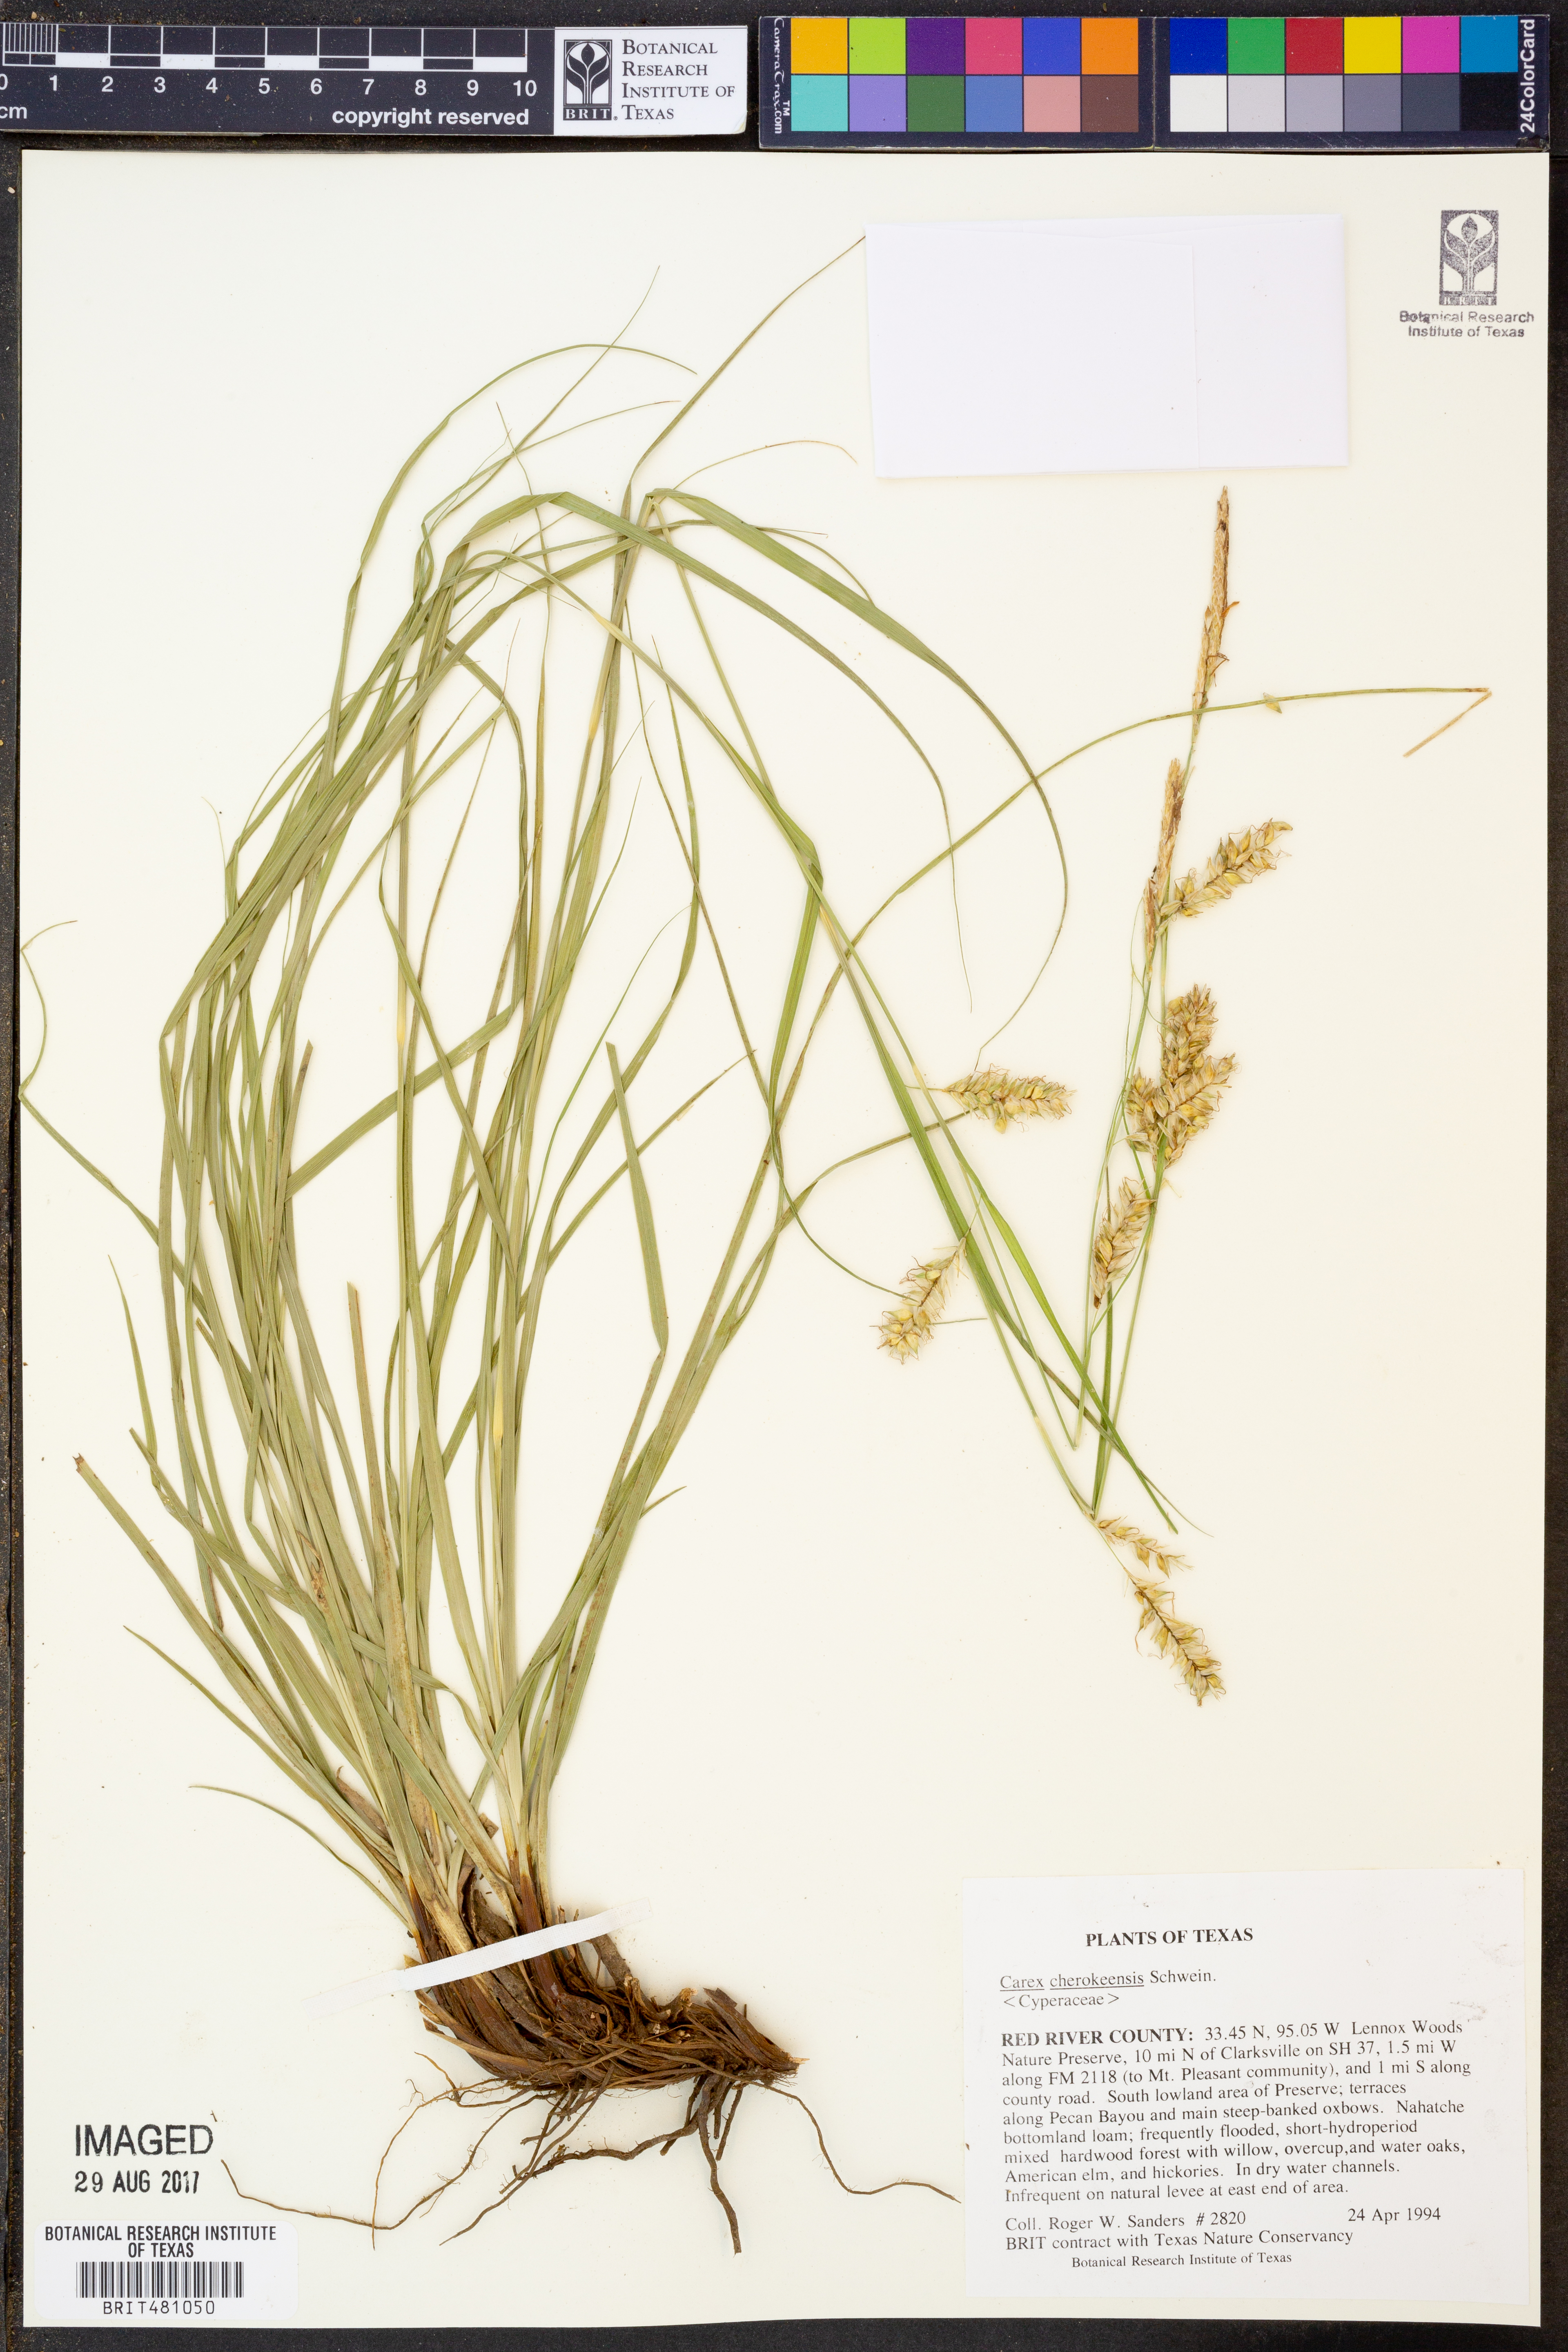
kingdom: Plantae
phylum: Tracheophyta
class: Liliopsida
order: Poales
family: Cyperaceae
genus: Carex
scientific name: Carex cherokeensis
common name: Cherokee sedge
